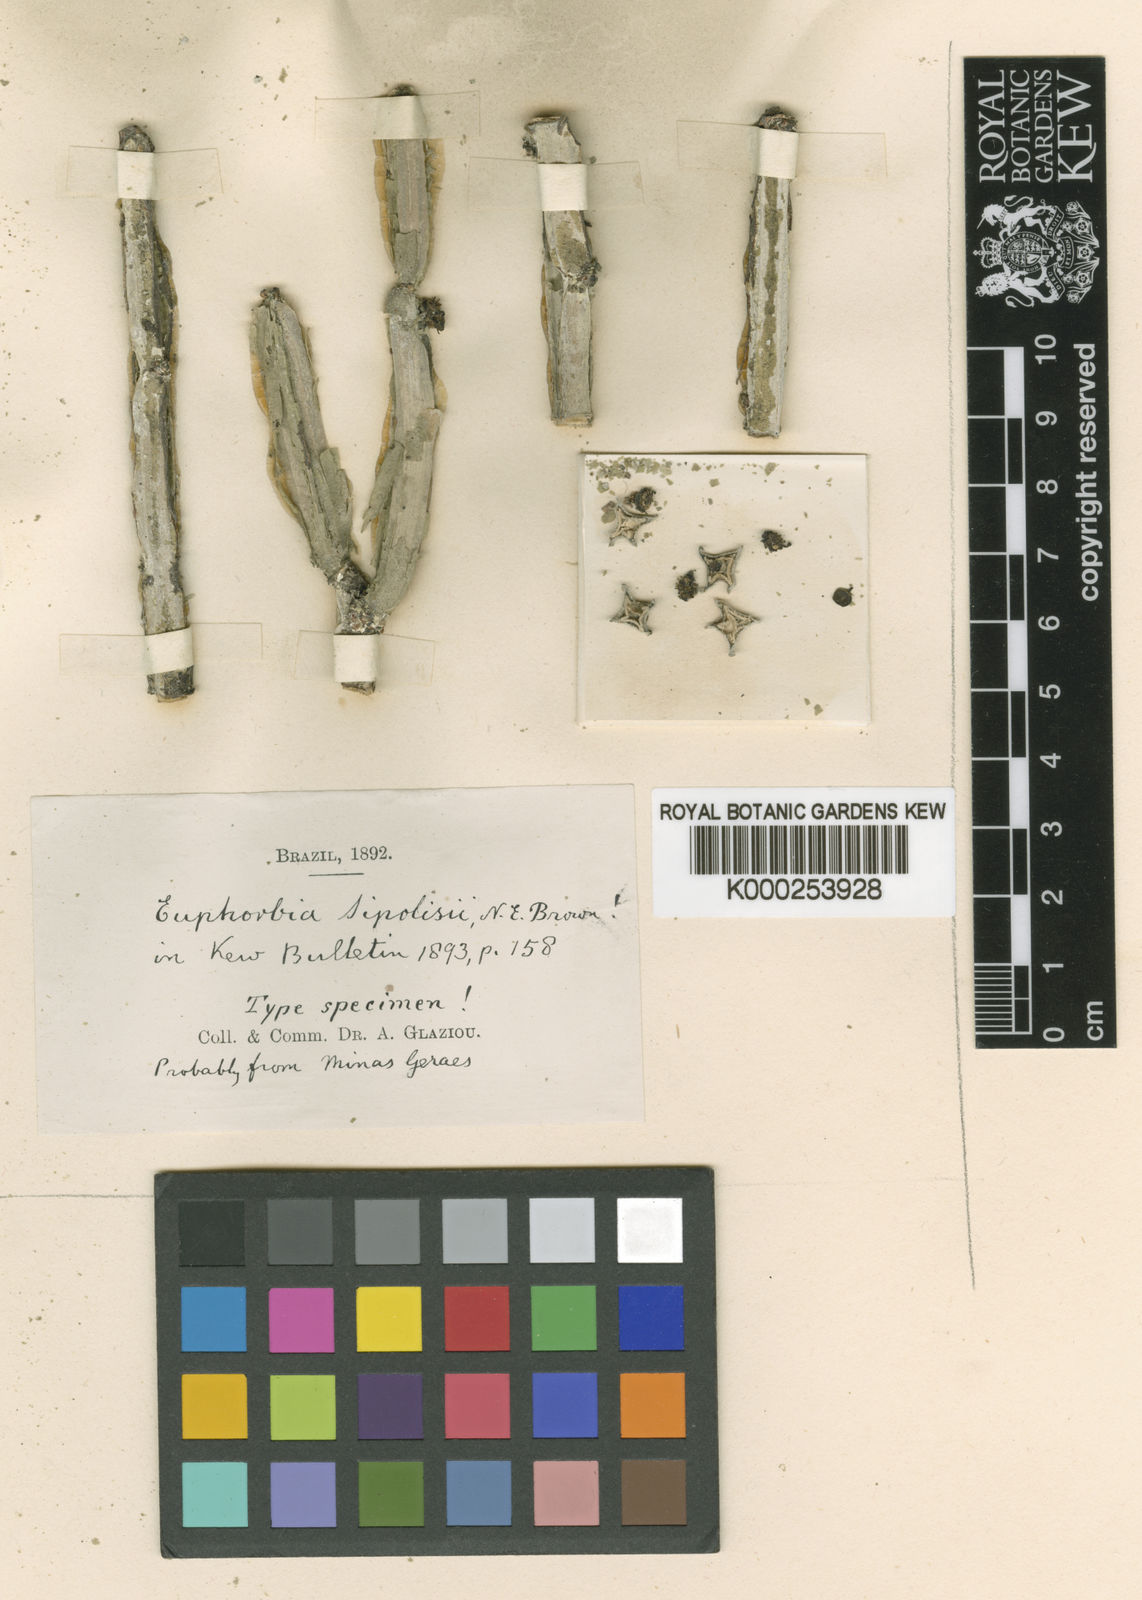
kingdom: Plantae
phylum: Tracheophyta
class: Magnoliopsida
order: Malpighiales
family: Euphorbiaceae
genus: Euphorbia
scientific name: Euphorbia sipolisii
